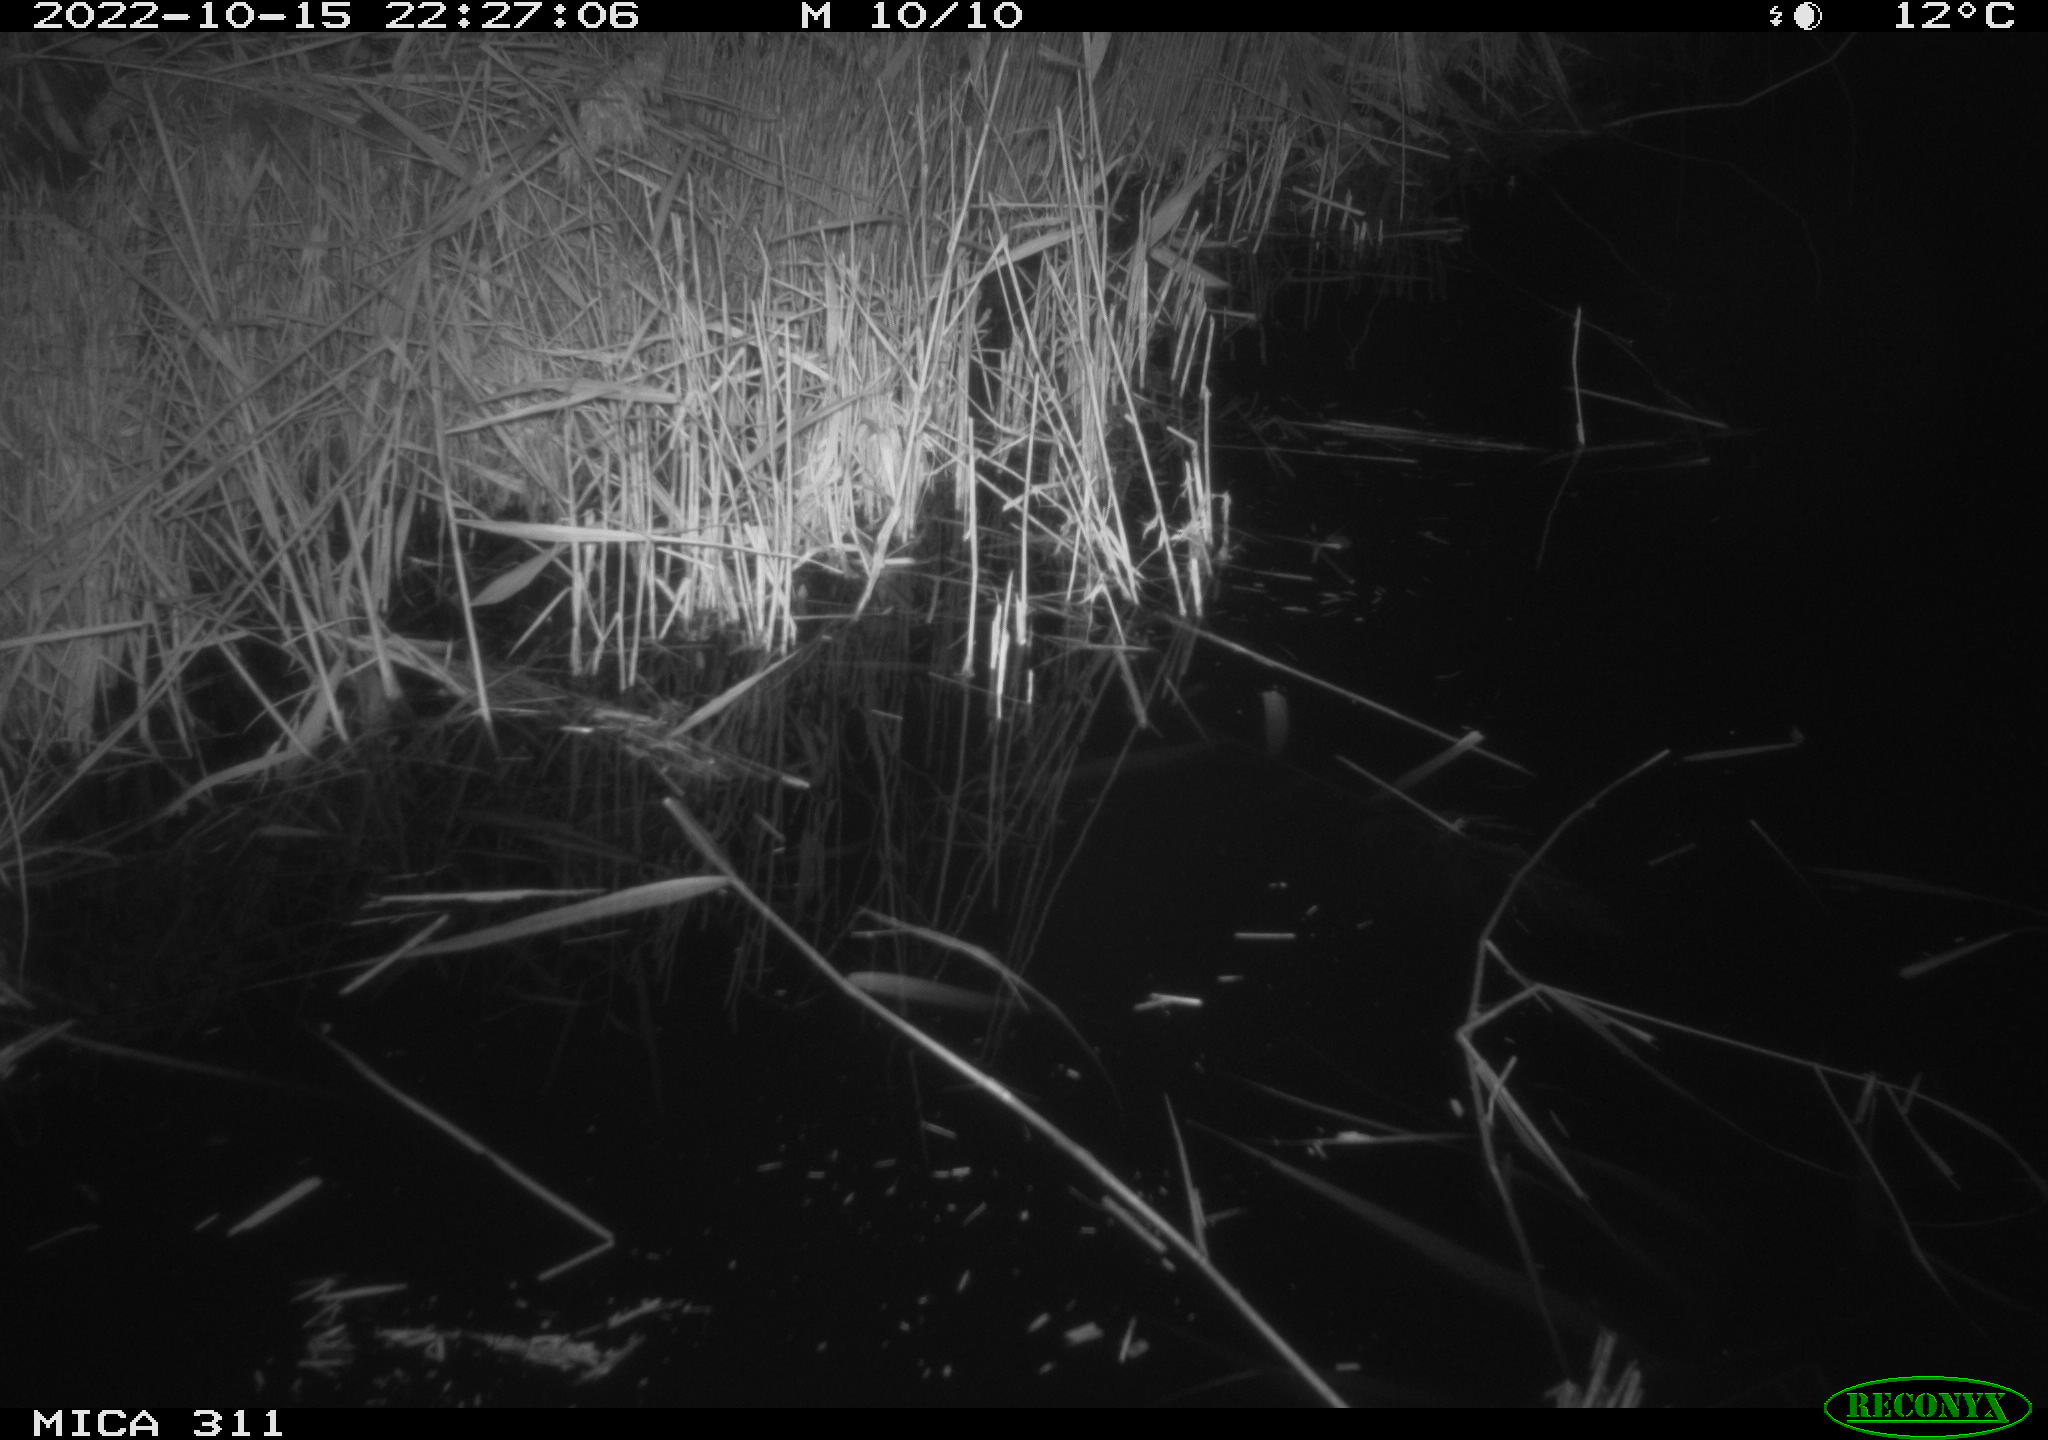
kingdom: Animalia
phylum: Chordata
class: Mammalia
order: Rodentia
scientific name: Rodentia
